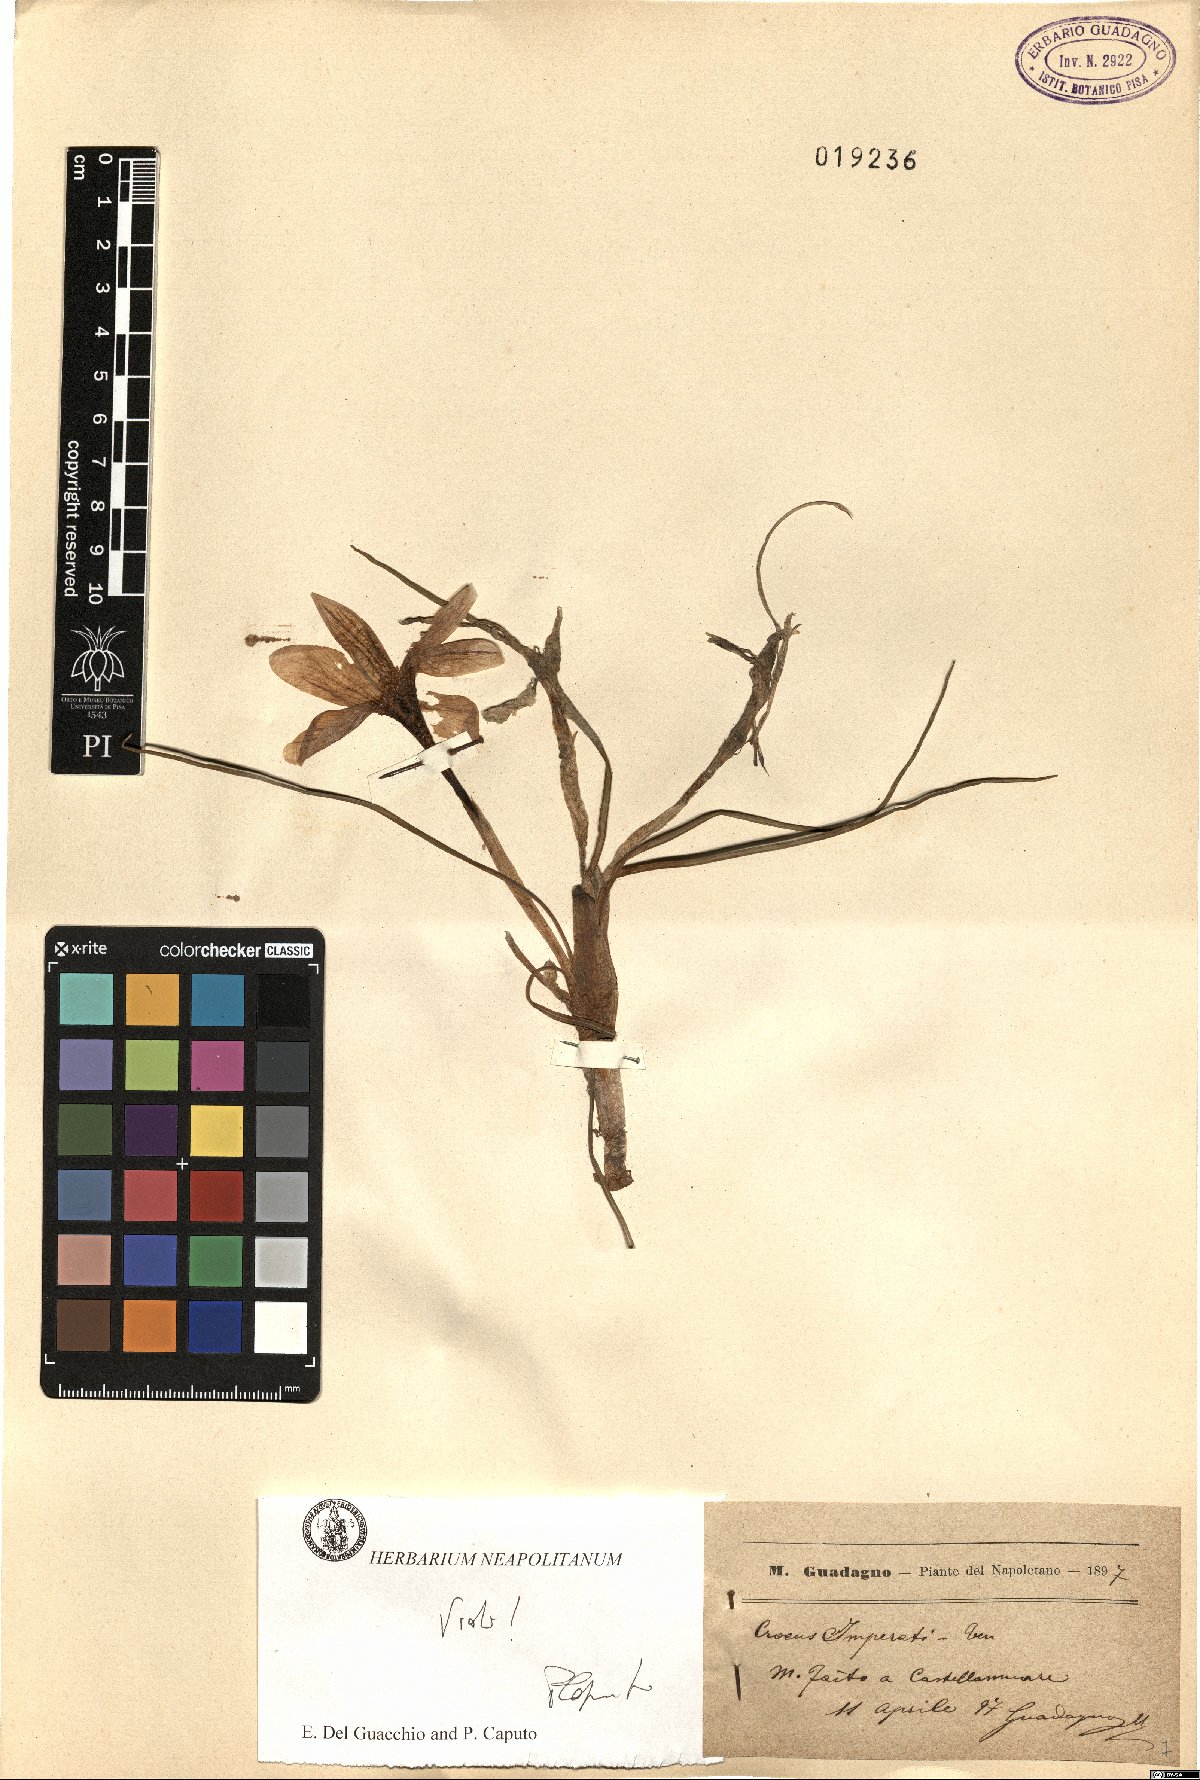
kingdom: Plantae
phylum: Tracheophyta
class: Liliopsida
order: Asparagales
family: Iridaceae
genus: Crocus
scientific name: Crocus imperati
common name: Early crocus
